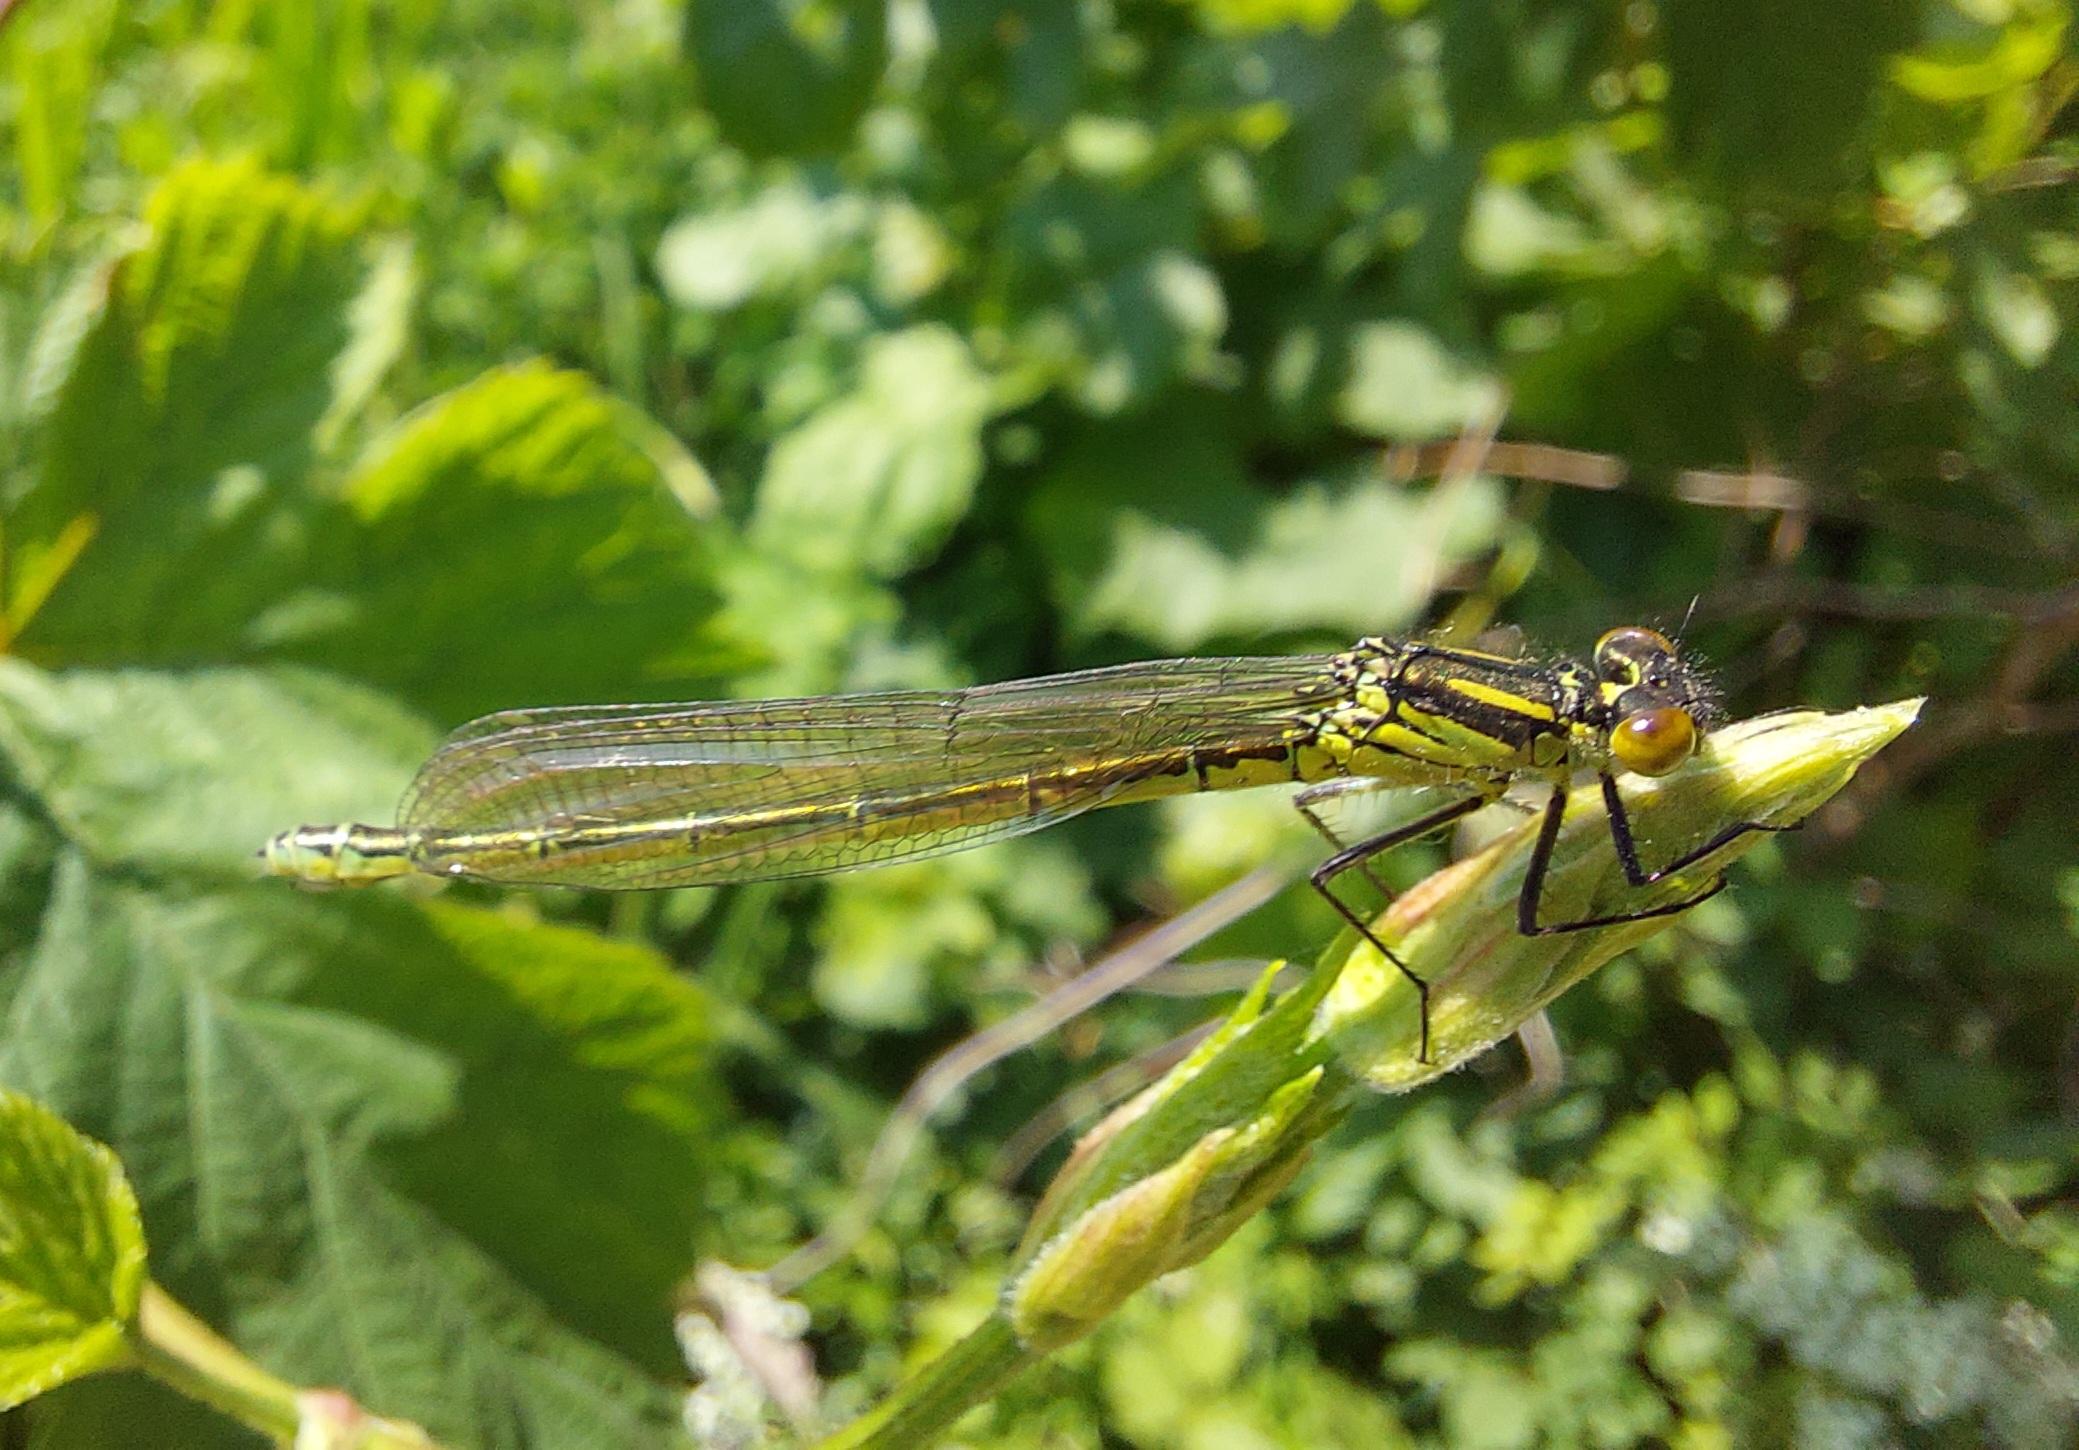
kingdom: Animalia
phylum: Arthropoda
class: Insecta
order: Odonata
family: Coenagrionidae
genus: Erythromma
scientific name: Erythromma najas
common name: Rødøjet vandnymfe
